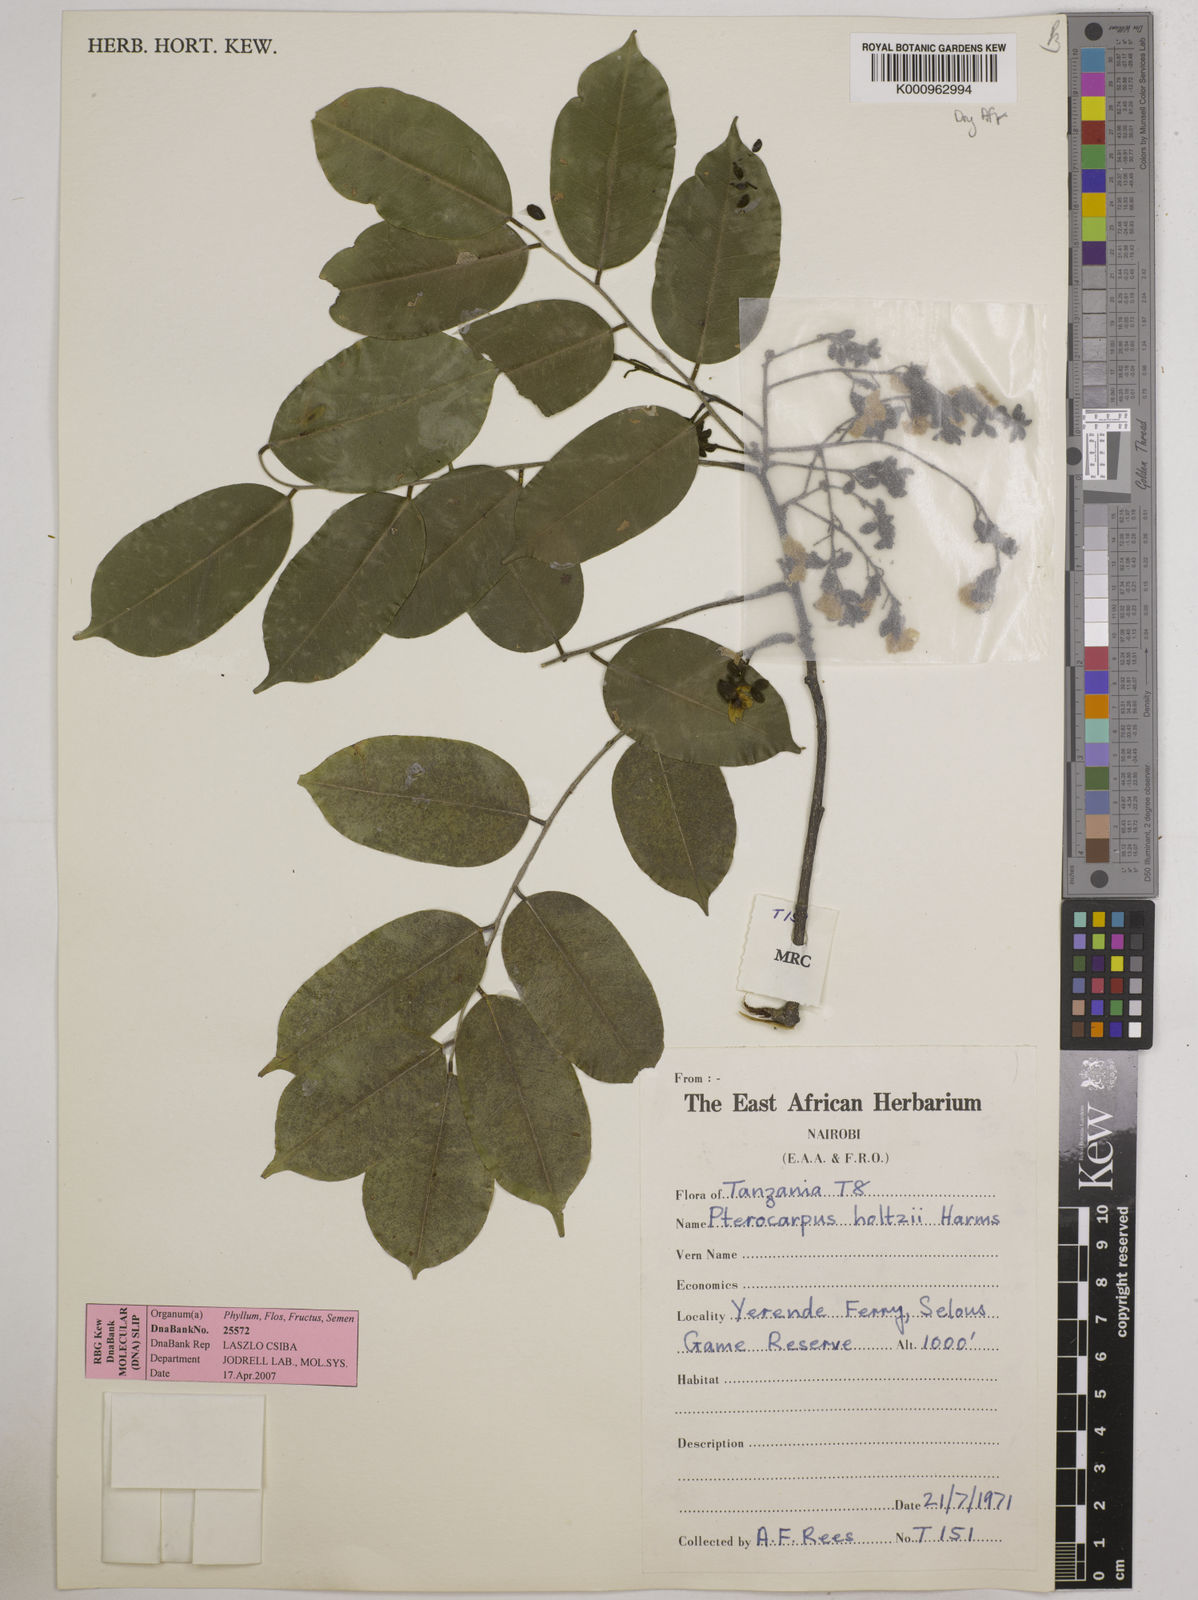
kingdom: Plantae
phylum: Tracheophyta
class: Magnoliopsida
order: Fabales
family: Fabaceae
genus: Pterocarpus
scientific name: Pterocarpus tinctorius
